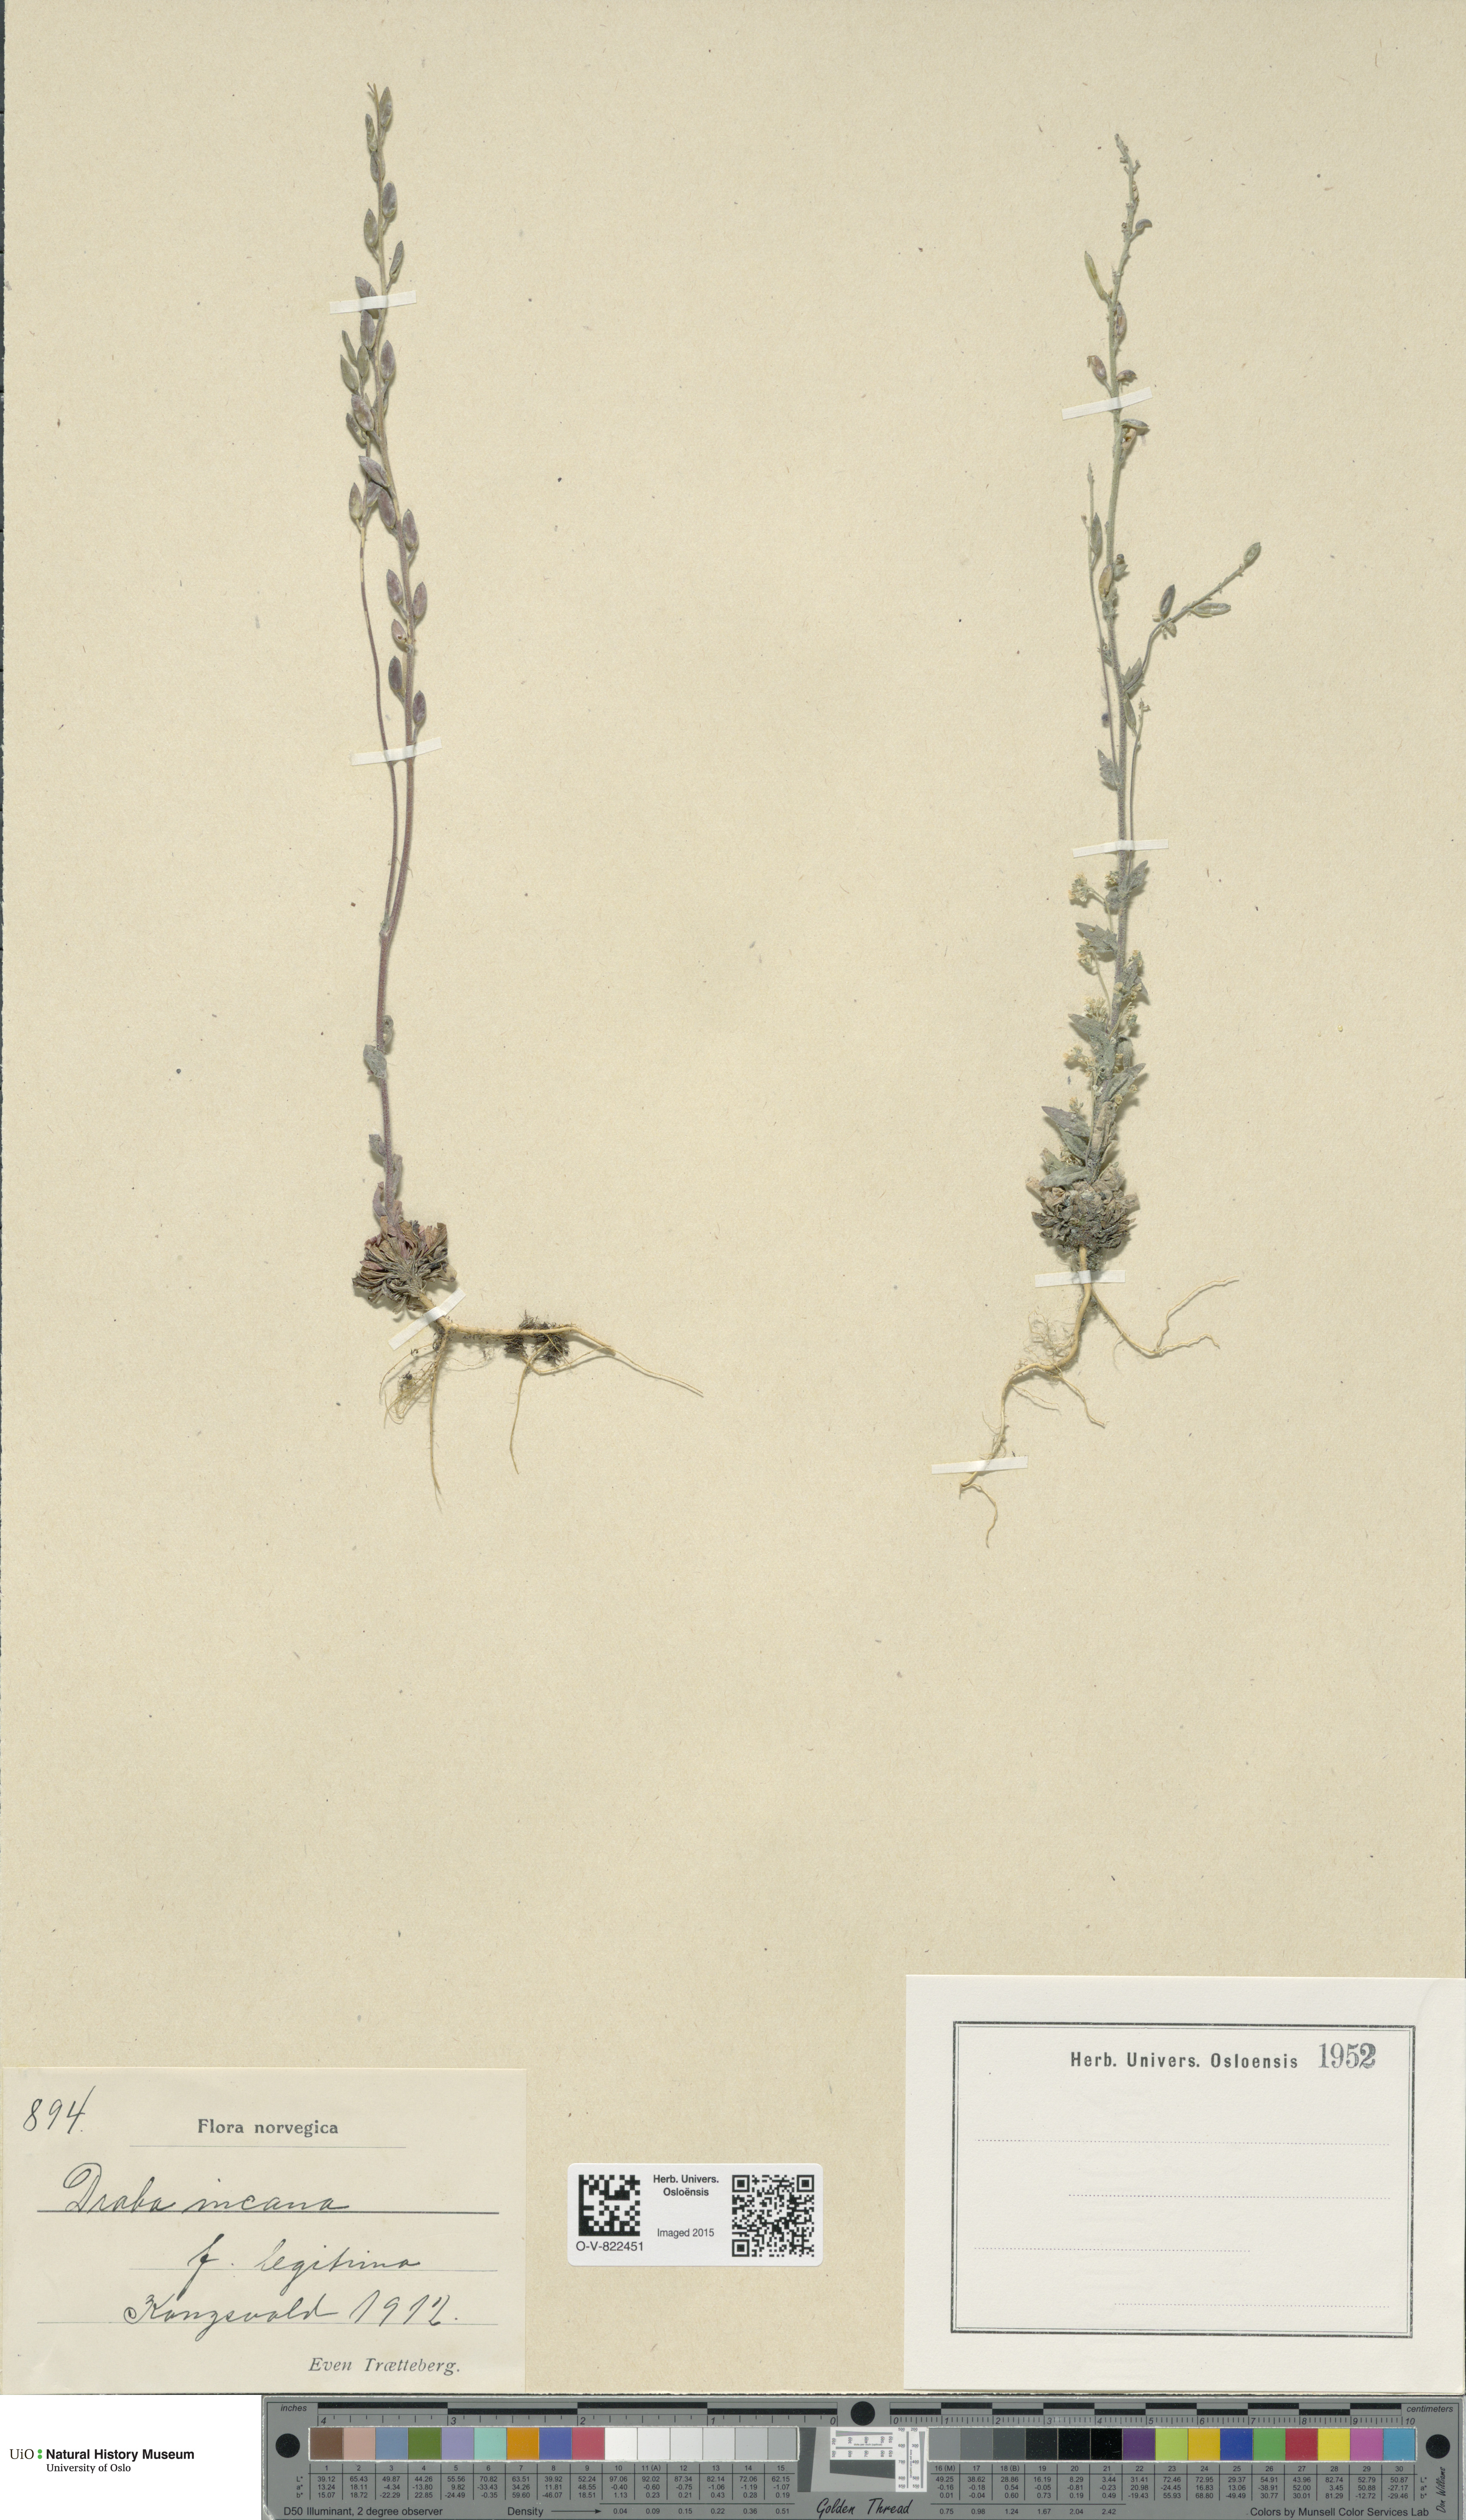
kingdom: Plantae
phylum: Tracheophyta
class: Magnoliopsida
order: Brassicales
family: Brassicaceae
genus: Draba
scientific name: Draba incana
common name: Hoary whitlow-grass
